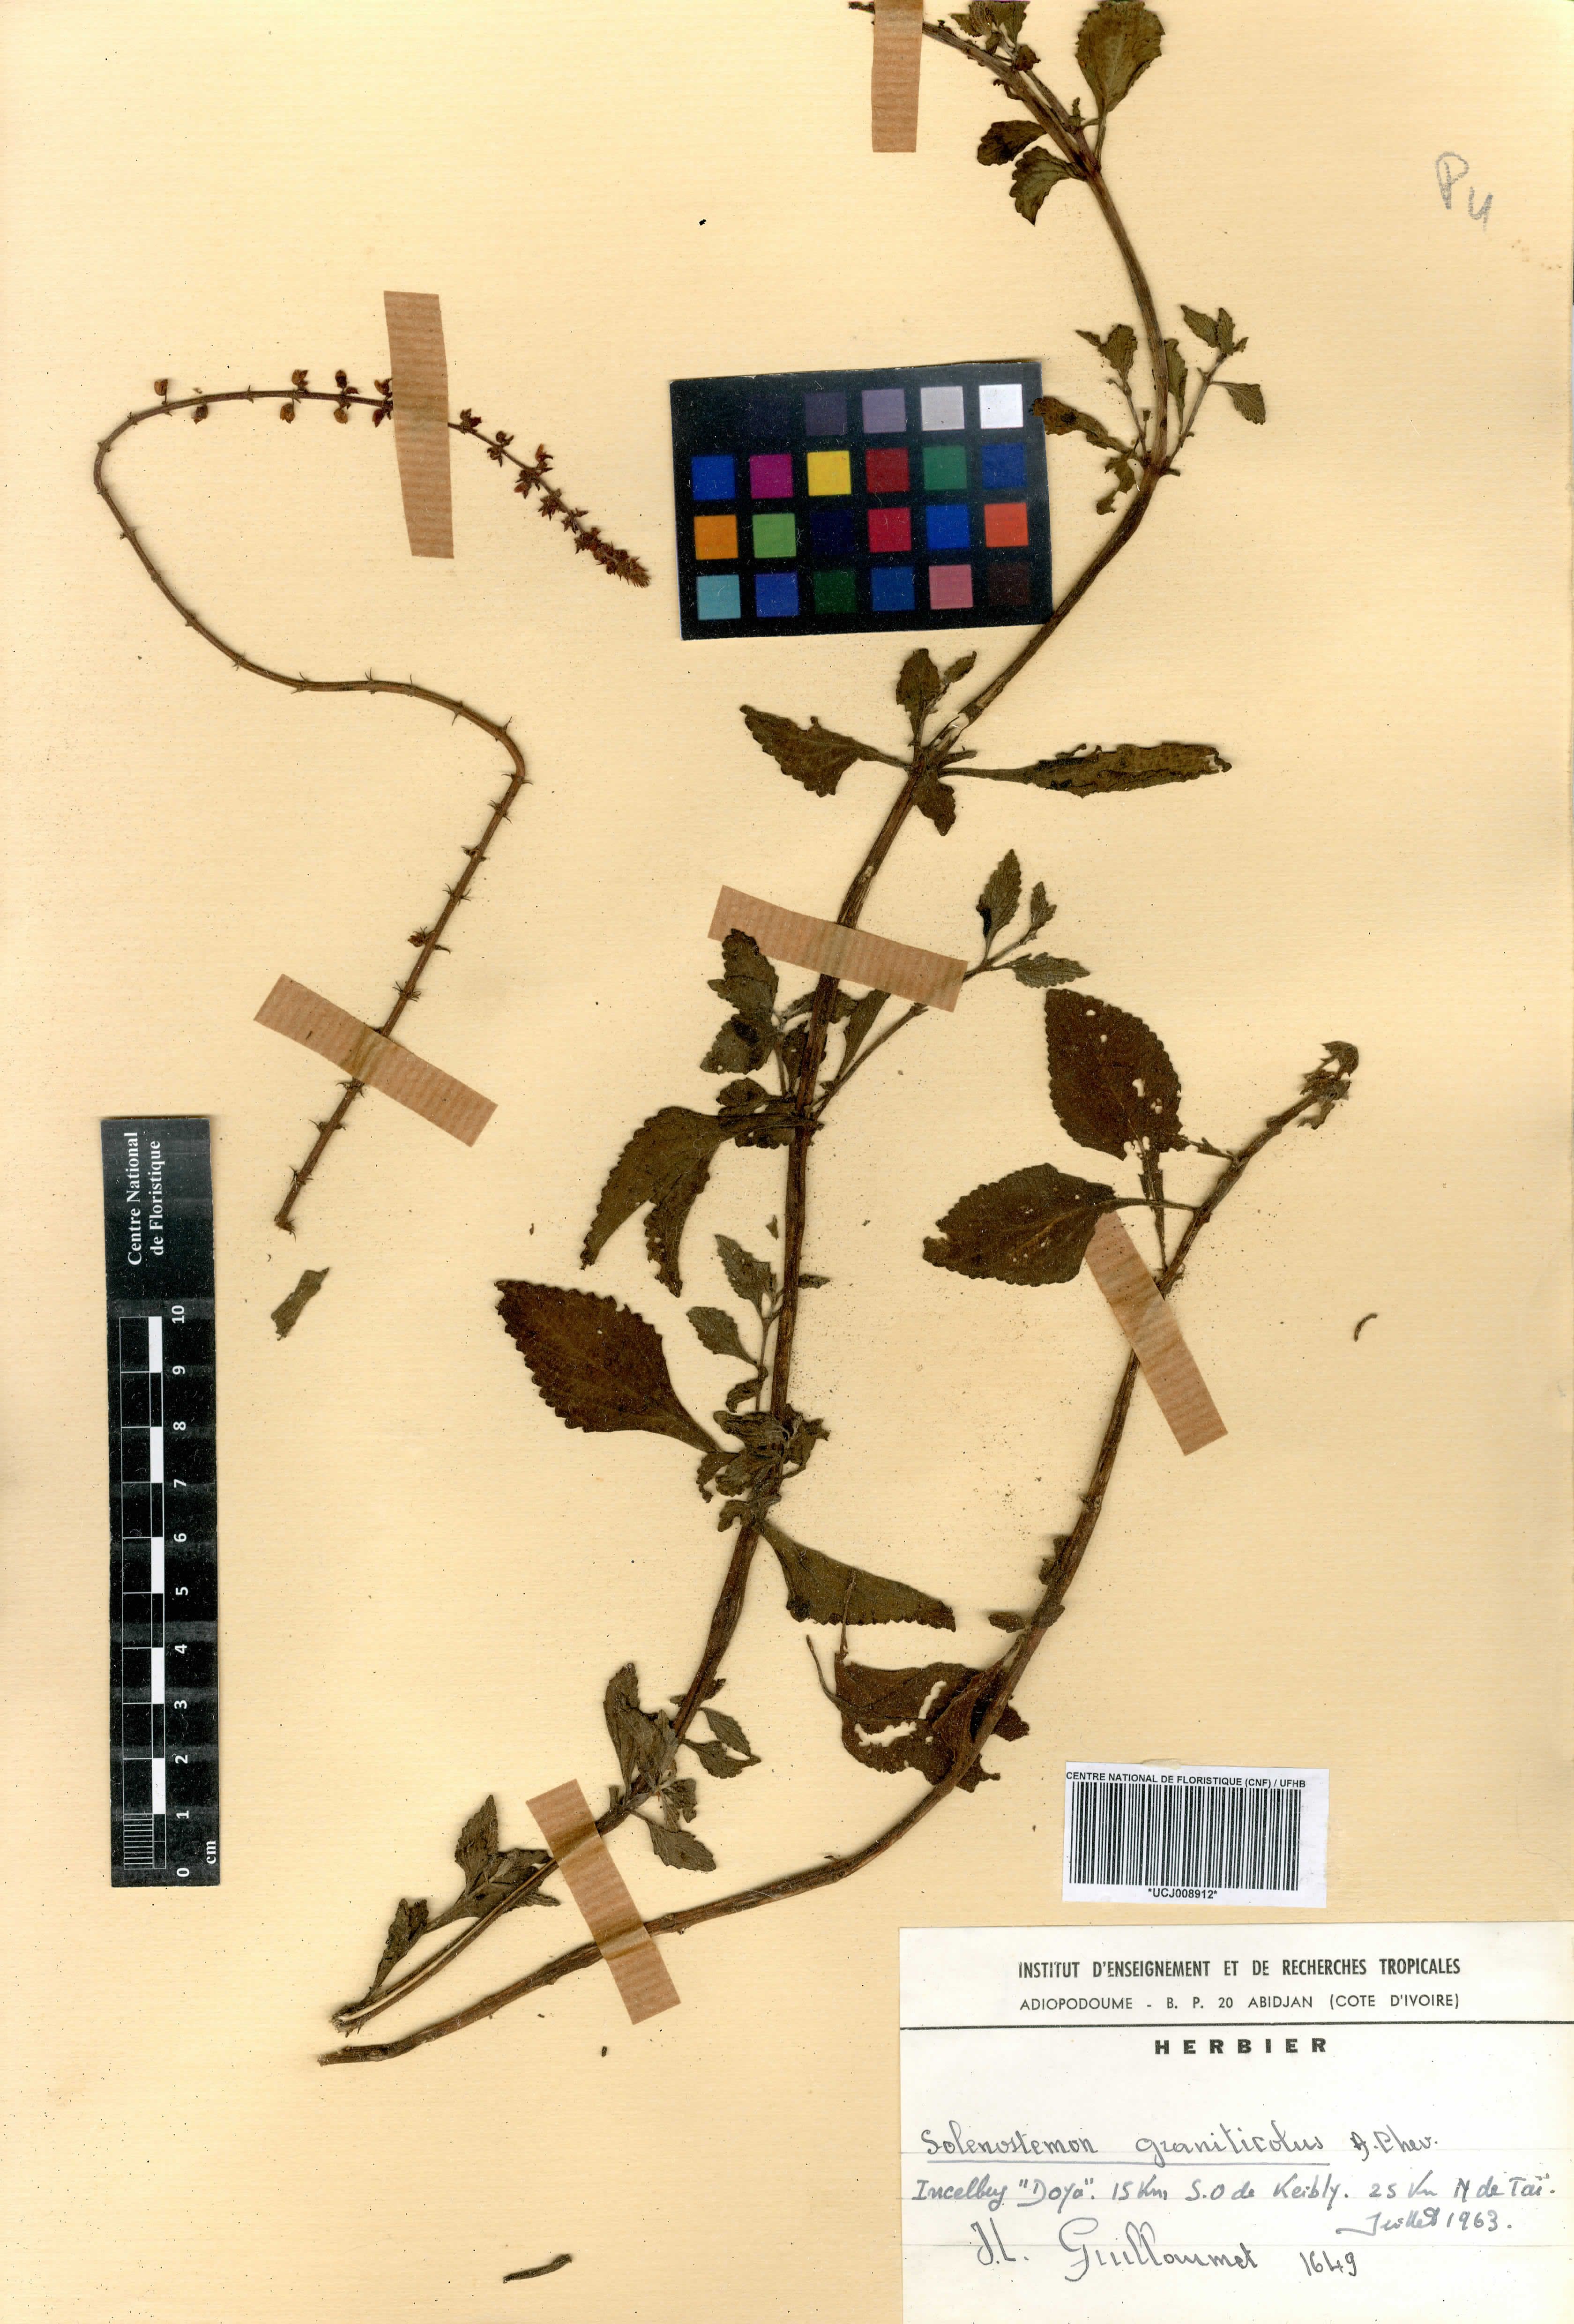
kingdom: Plantae
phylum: Tracheophyta
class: Magnoliopsida
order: Lamiales
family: Lamiaceae
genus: Coleus
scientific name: Coleus graniticola
